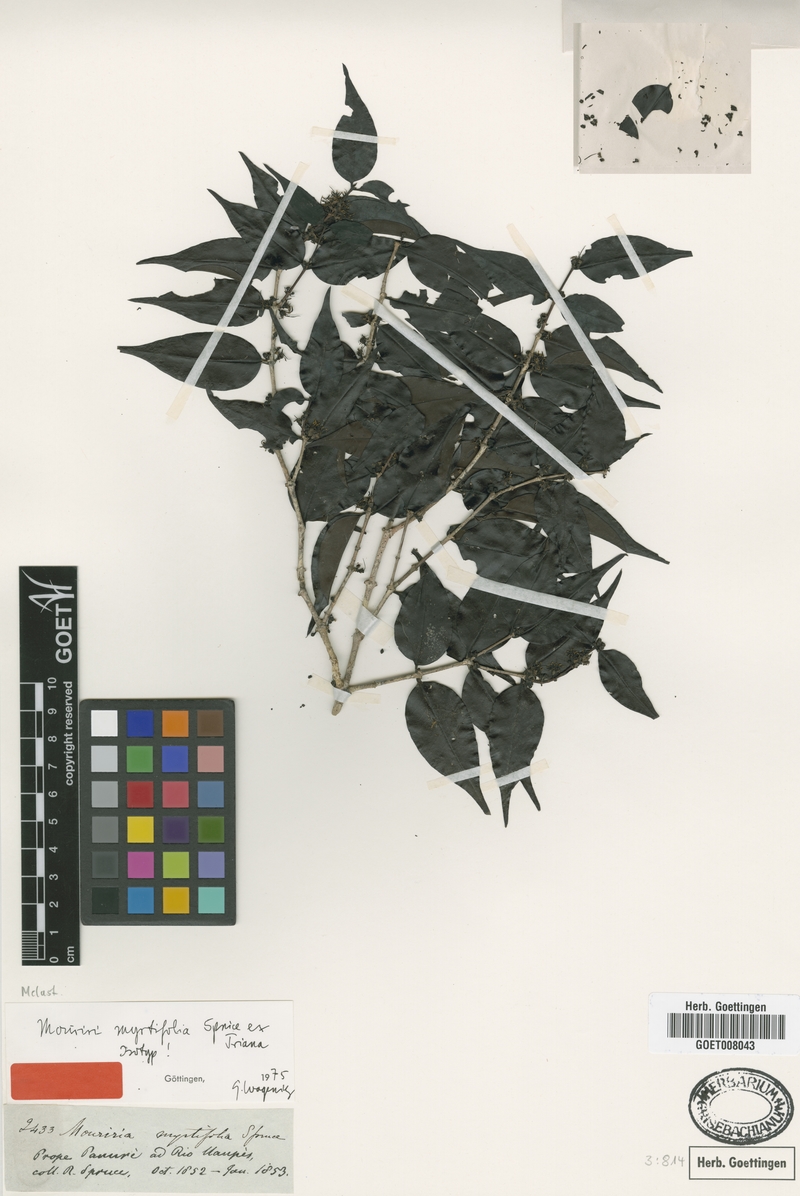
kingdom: Plantae
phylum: Tracheophyta
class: Magnoliopsida
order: Myrtales
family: Melastomataceae
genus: Mouriri
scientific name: Mouriri myrtifolia
